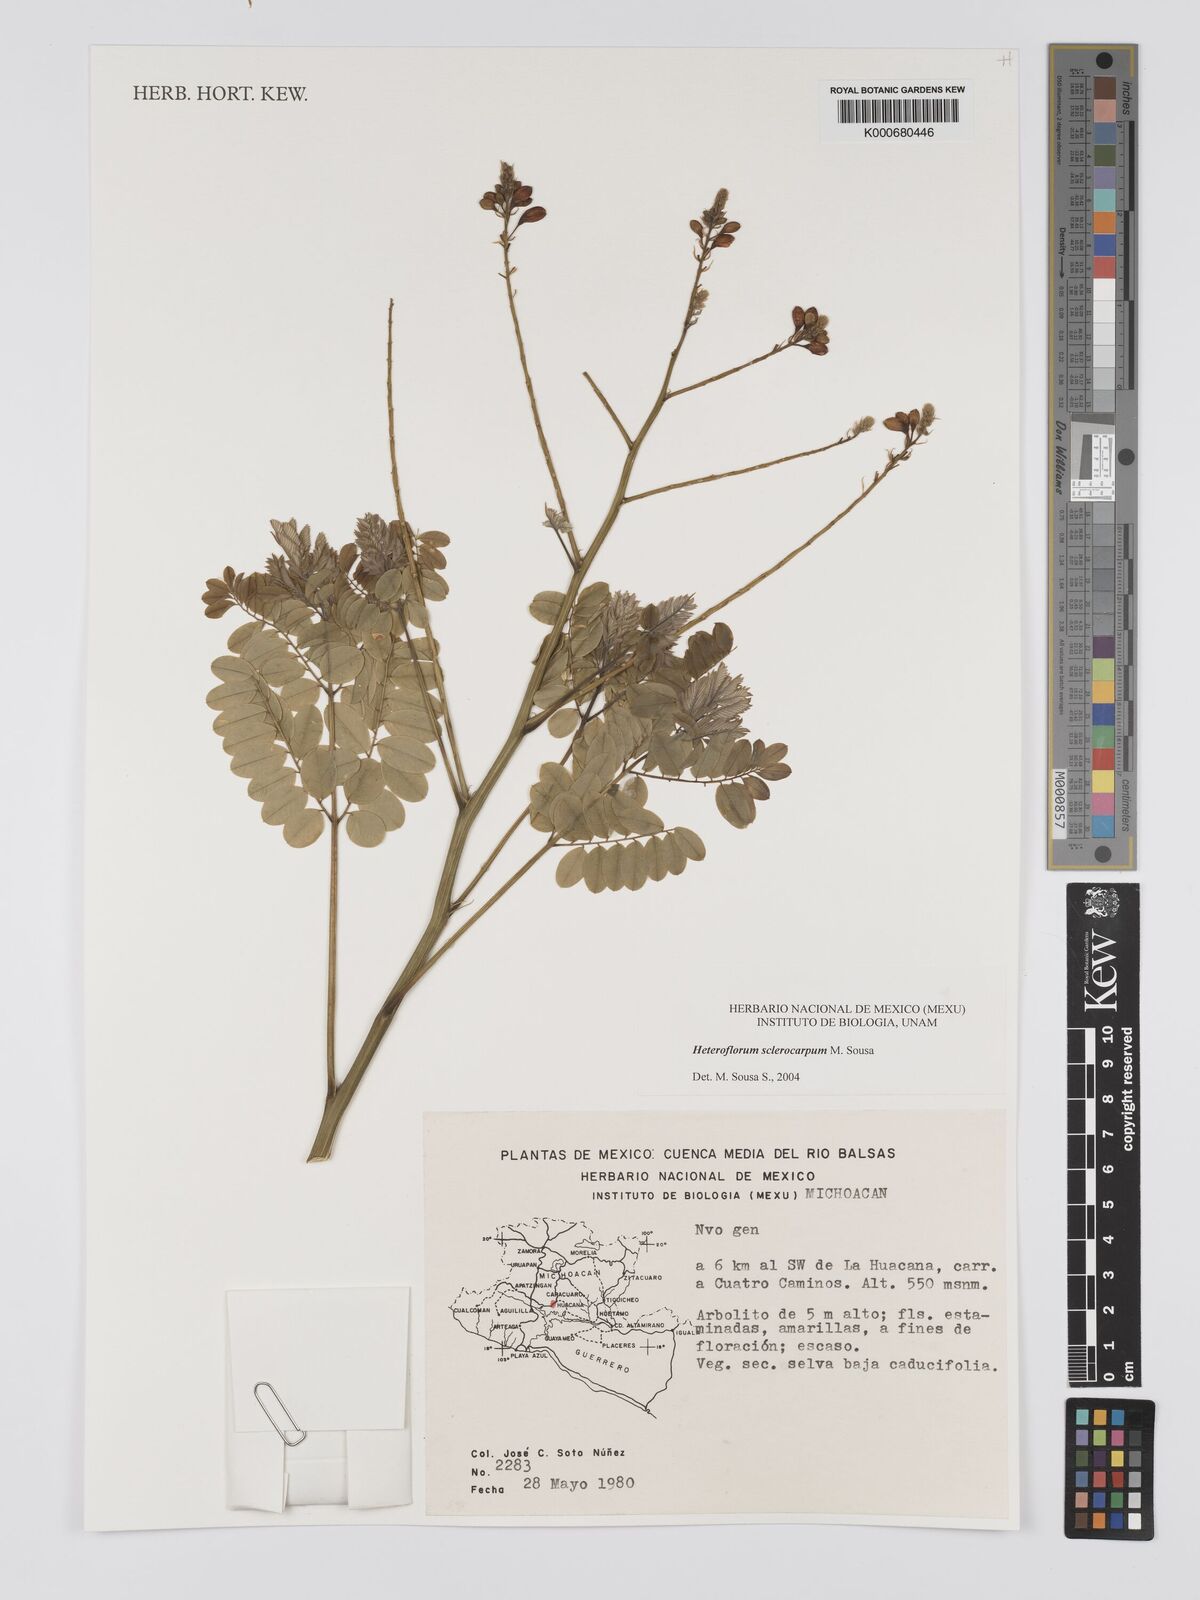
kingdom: Plantae
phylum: Tracheophyta
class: Magnoliopsida
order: Fabales
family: Fabaceae
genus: Heteroflorum
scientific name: Heteroflorum sclerocarpum
